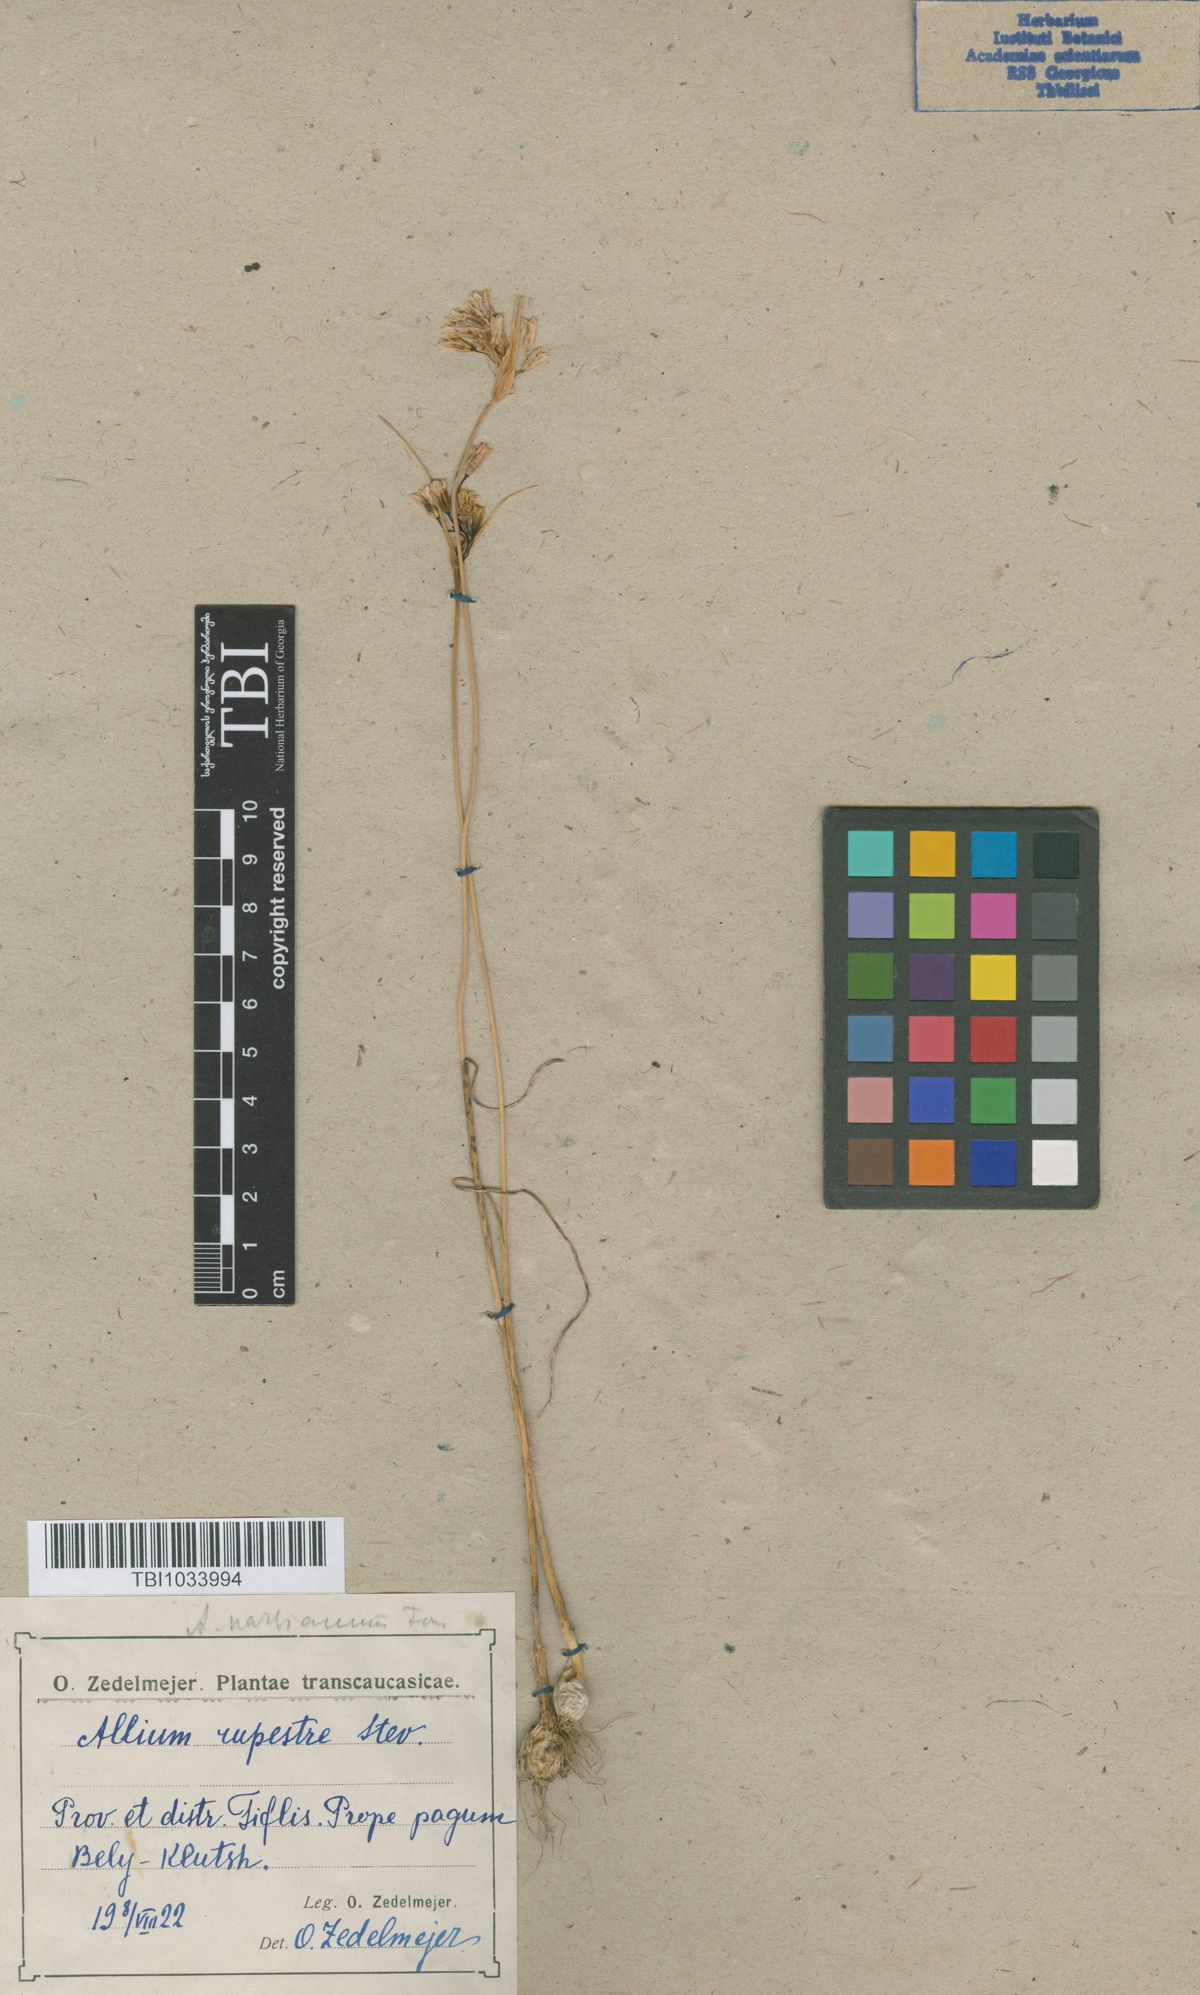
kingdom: Plantae
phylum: Tracheophyta
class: Liliopsida
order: Asparagales
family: Amaryllidaceae
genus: Allium
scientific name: Allium rupestre
